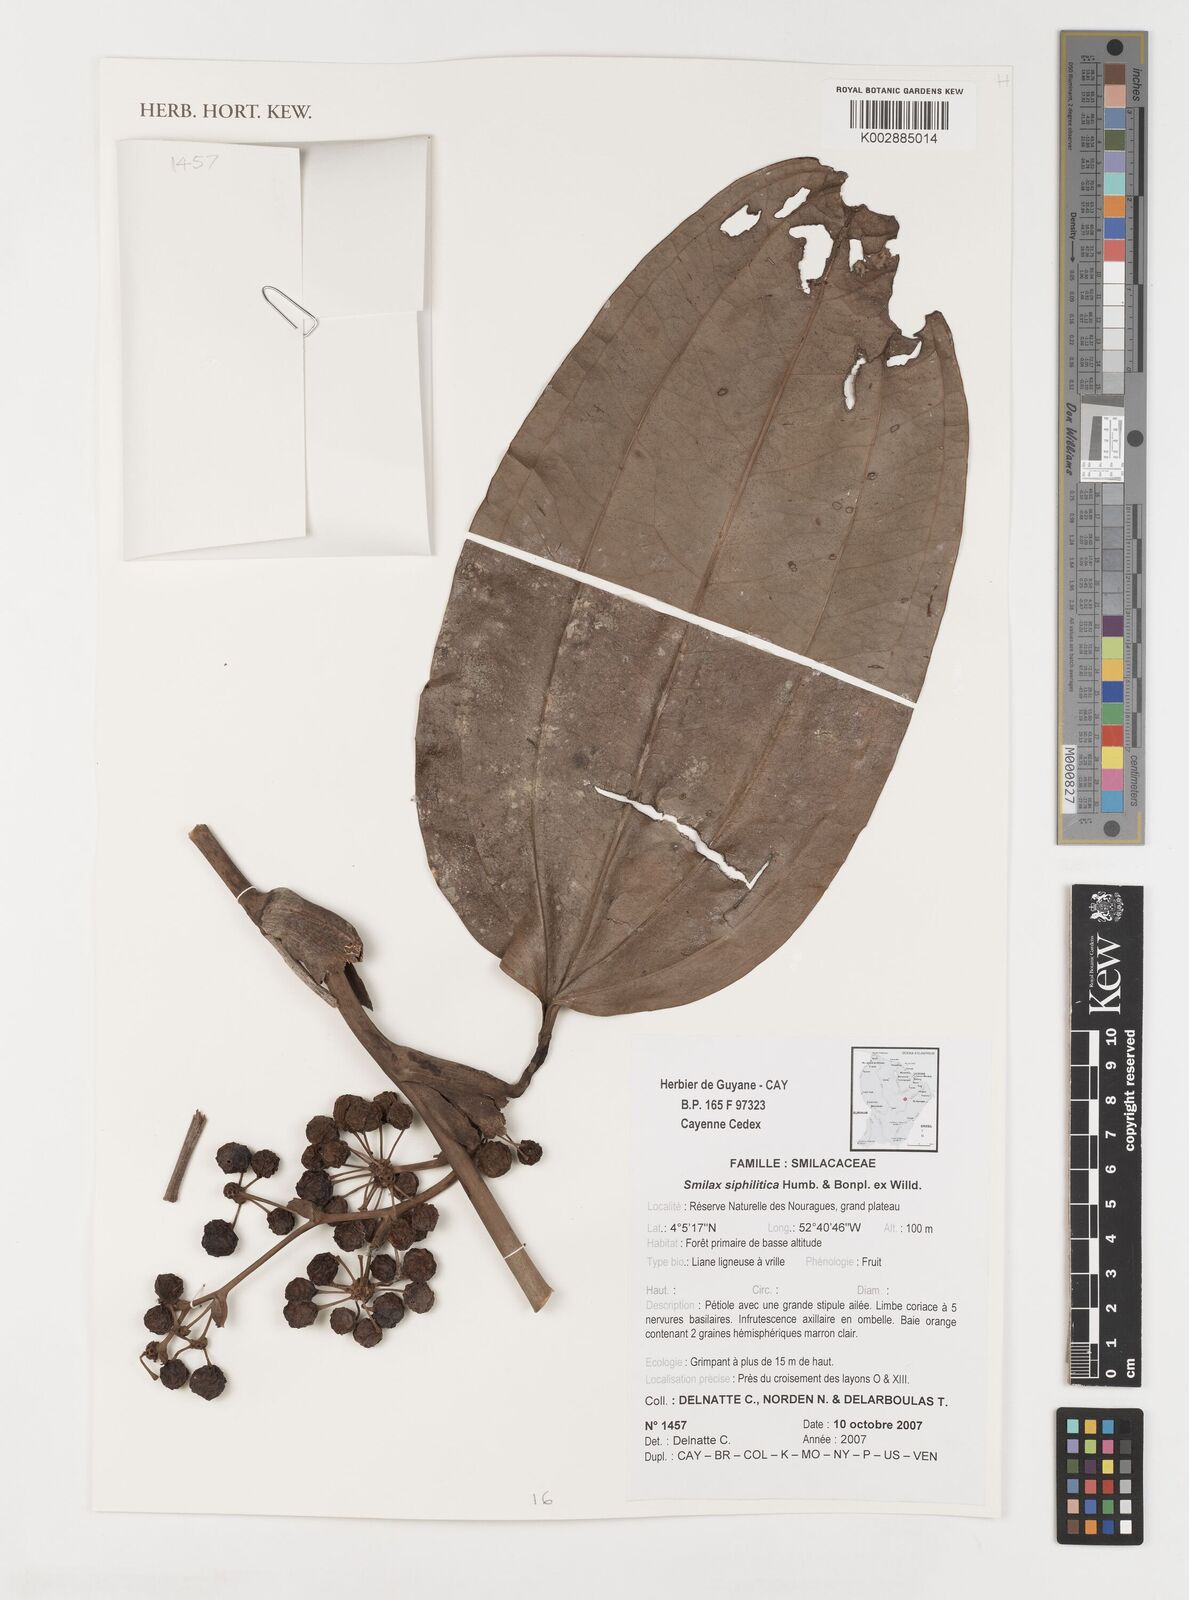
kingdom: Plantae
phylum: Tracheophyta
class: Liliopsida
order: Liliales
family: Smilacaceae
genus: Smilax
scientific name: Smilax schomburgkiana
